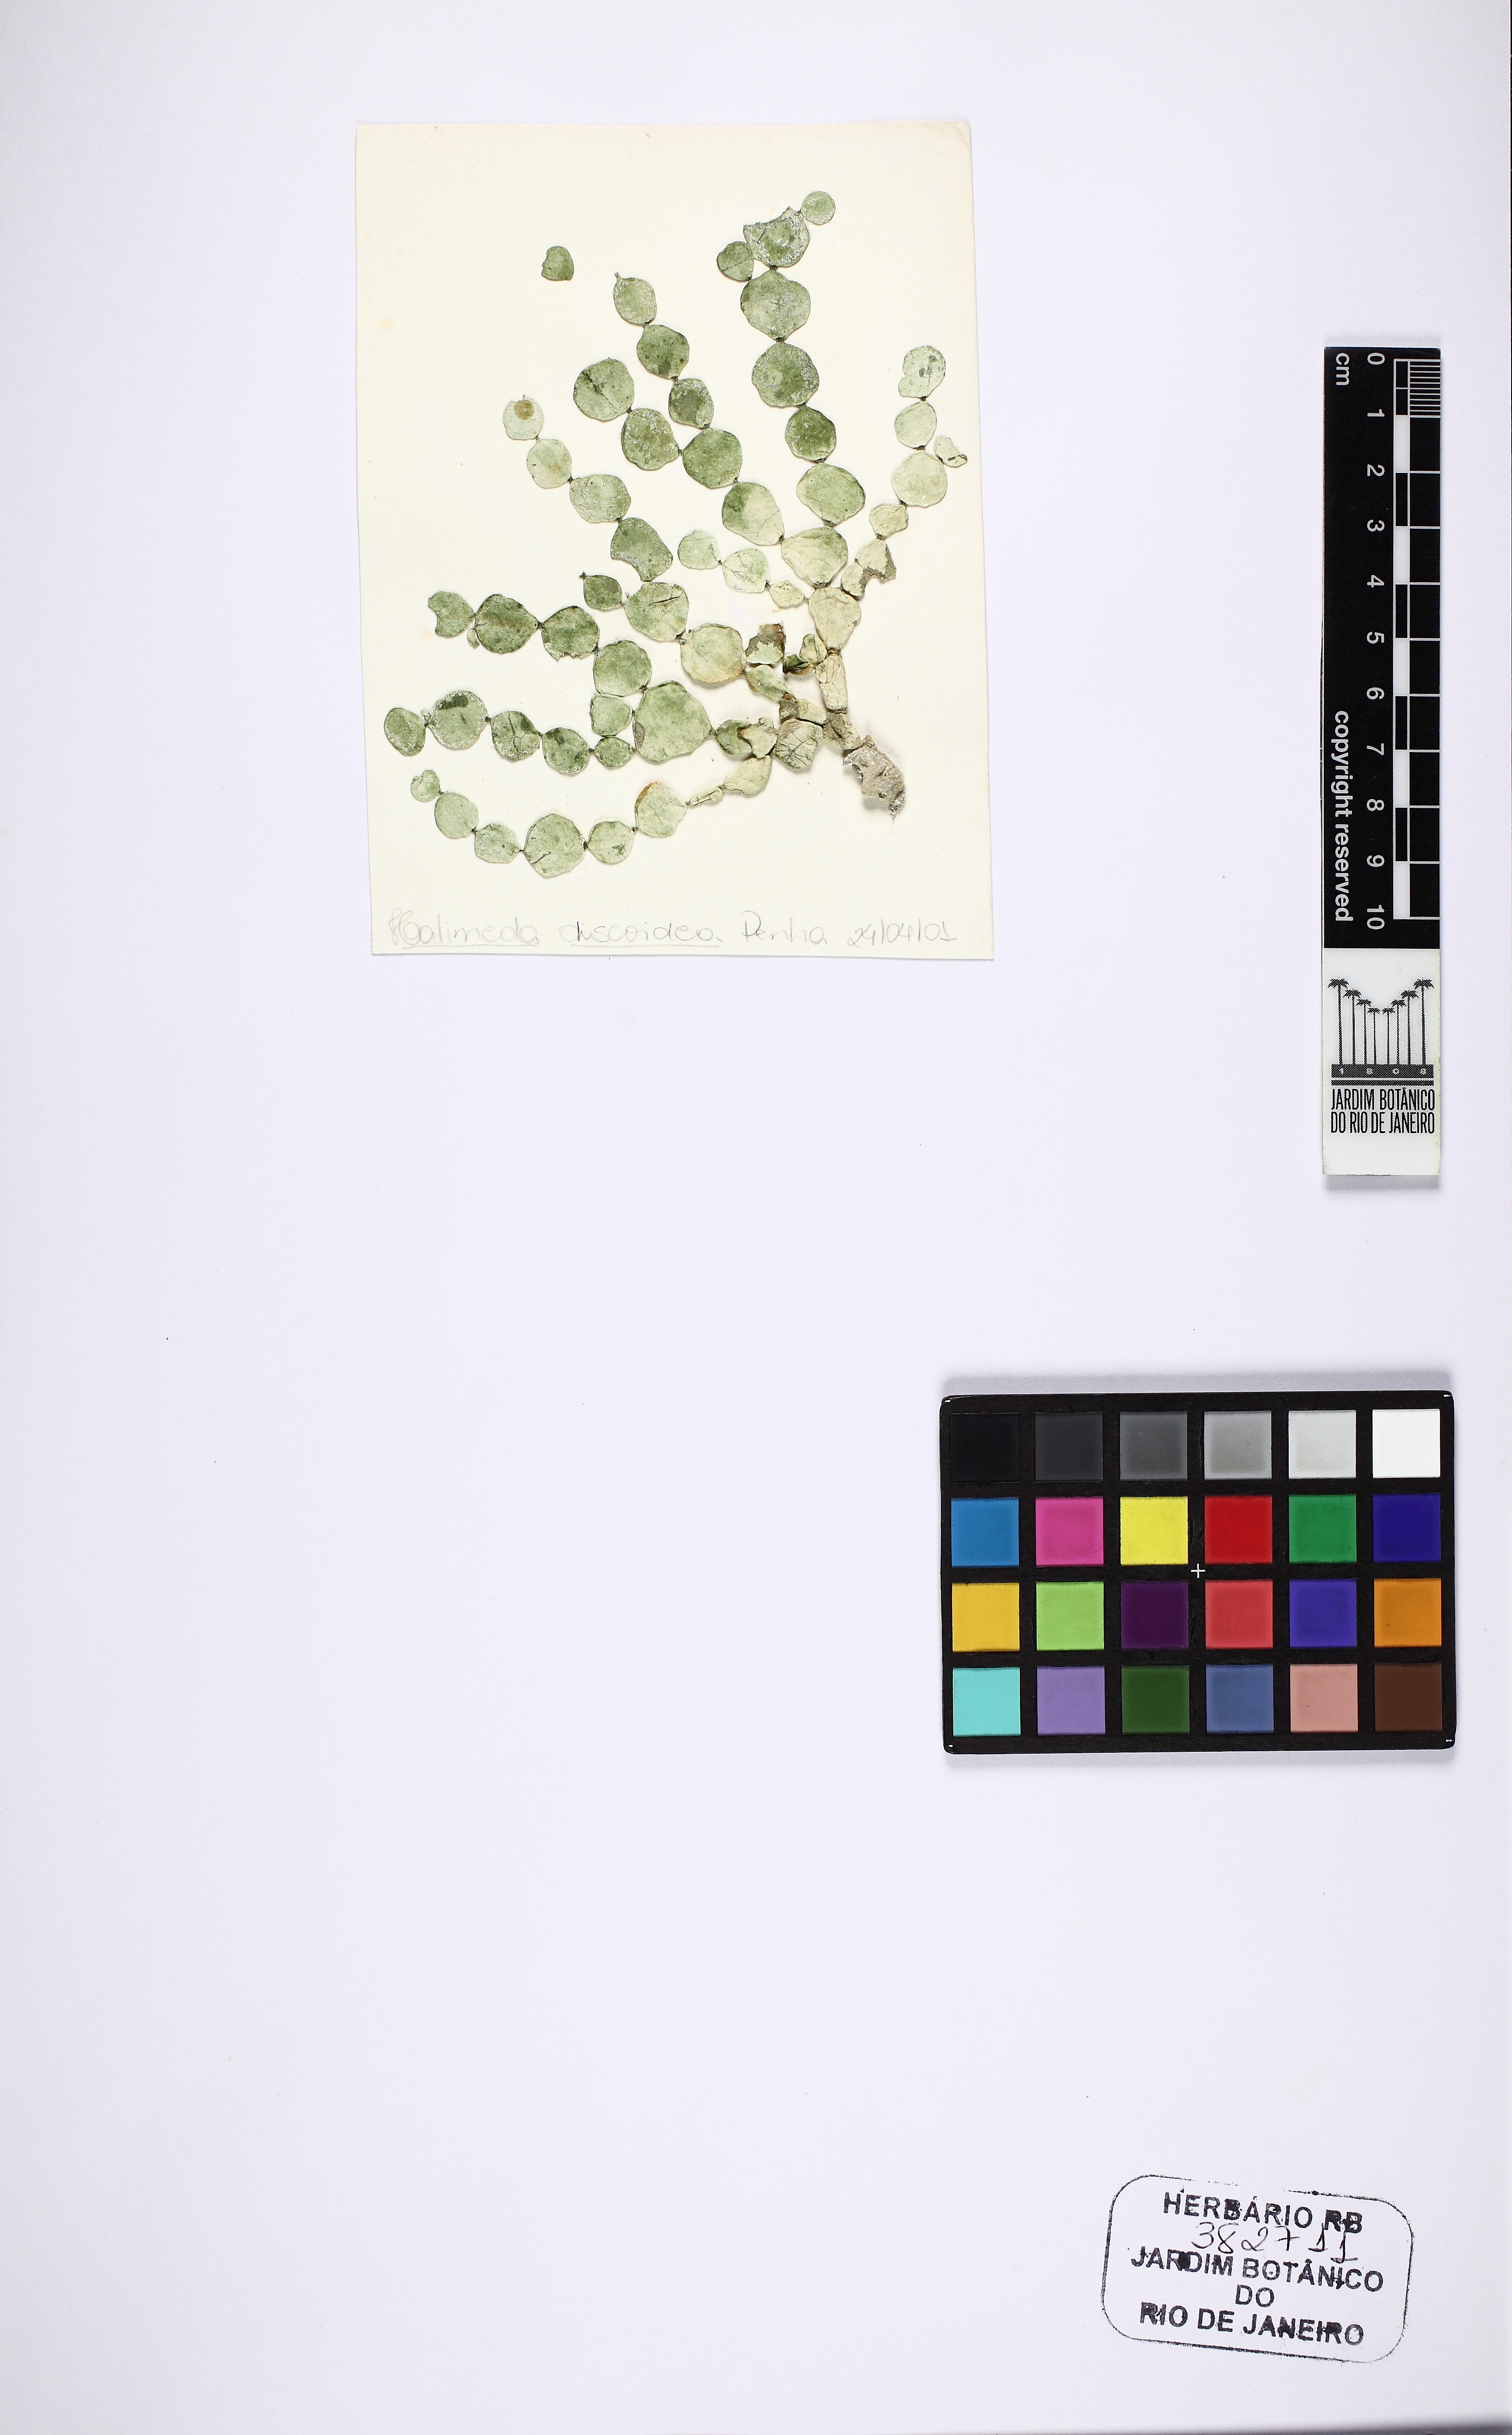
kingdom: Plantae
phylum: Chlorophyta
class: Ulvophyceae
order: Bryopsidales
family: Halimedaceae
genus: Halimeda
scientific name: Halimeda discoidea
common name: Large leaf watercress algae
